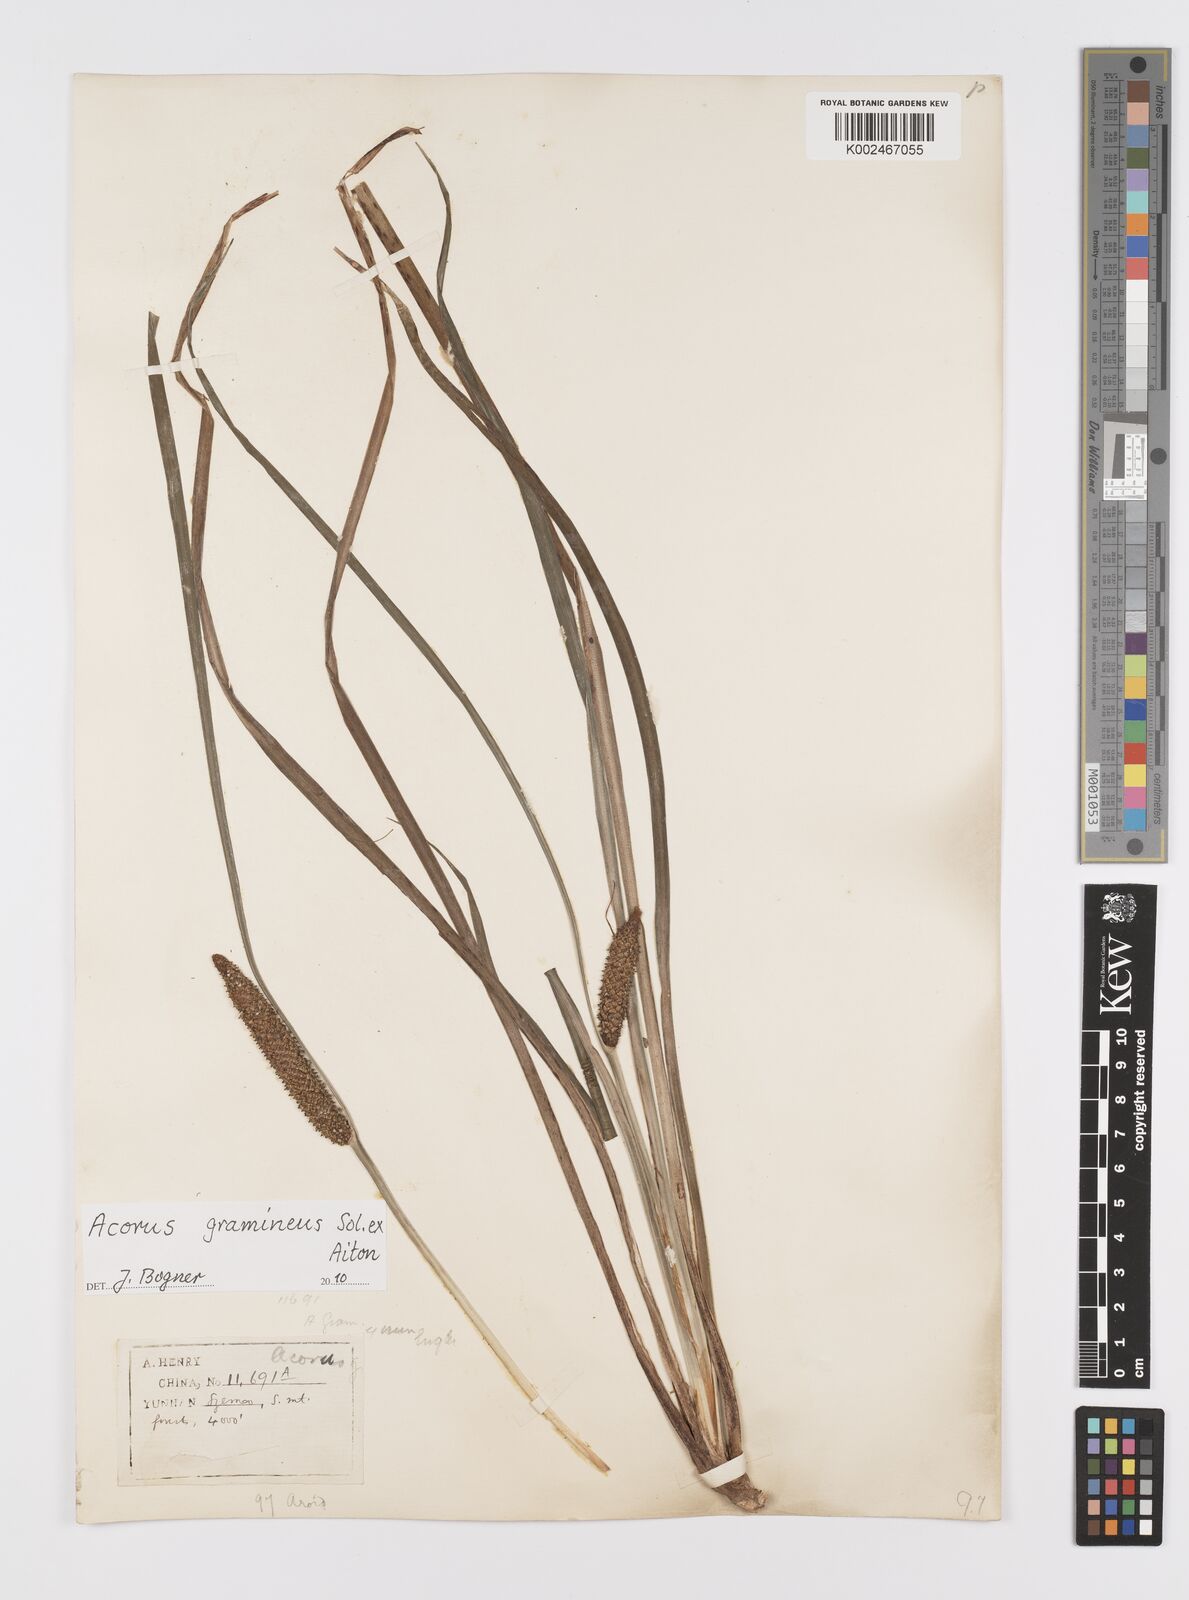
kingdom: Plantae
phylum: Tracheophyta
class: Liliopsida
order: Acorales
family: Acoraceae
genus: Acorus
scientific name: Acorus gramineus
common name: Slender sweet-flag
